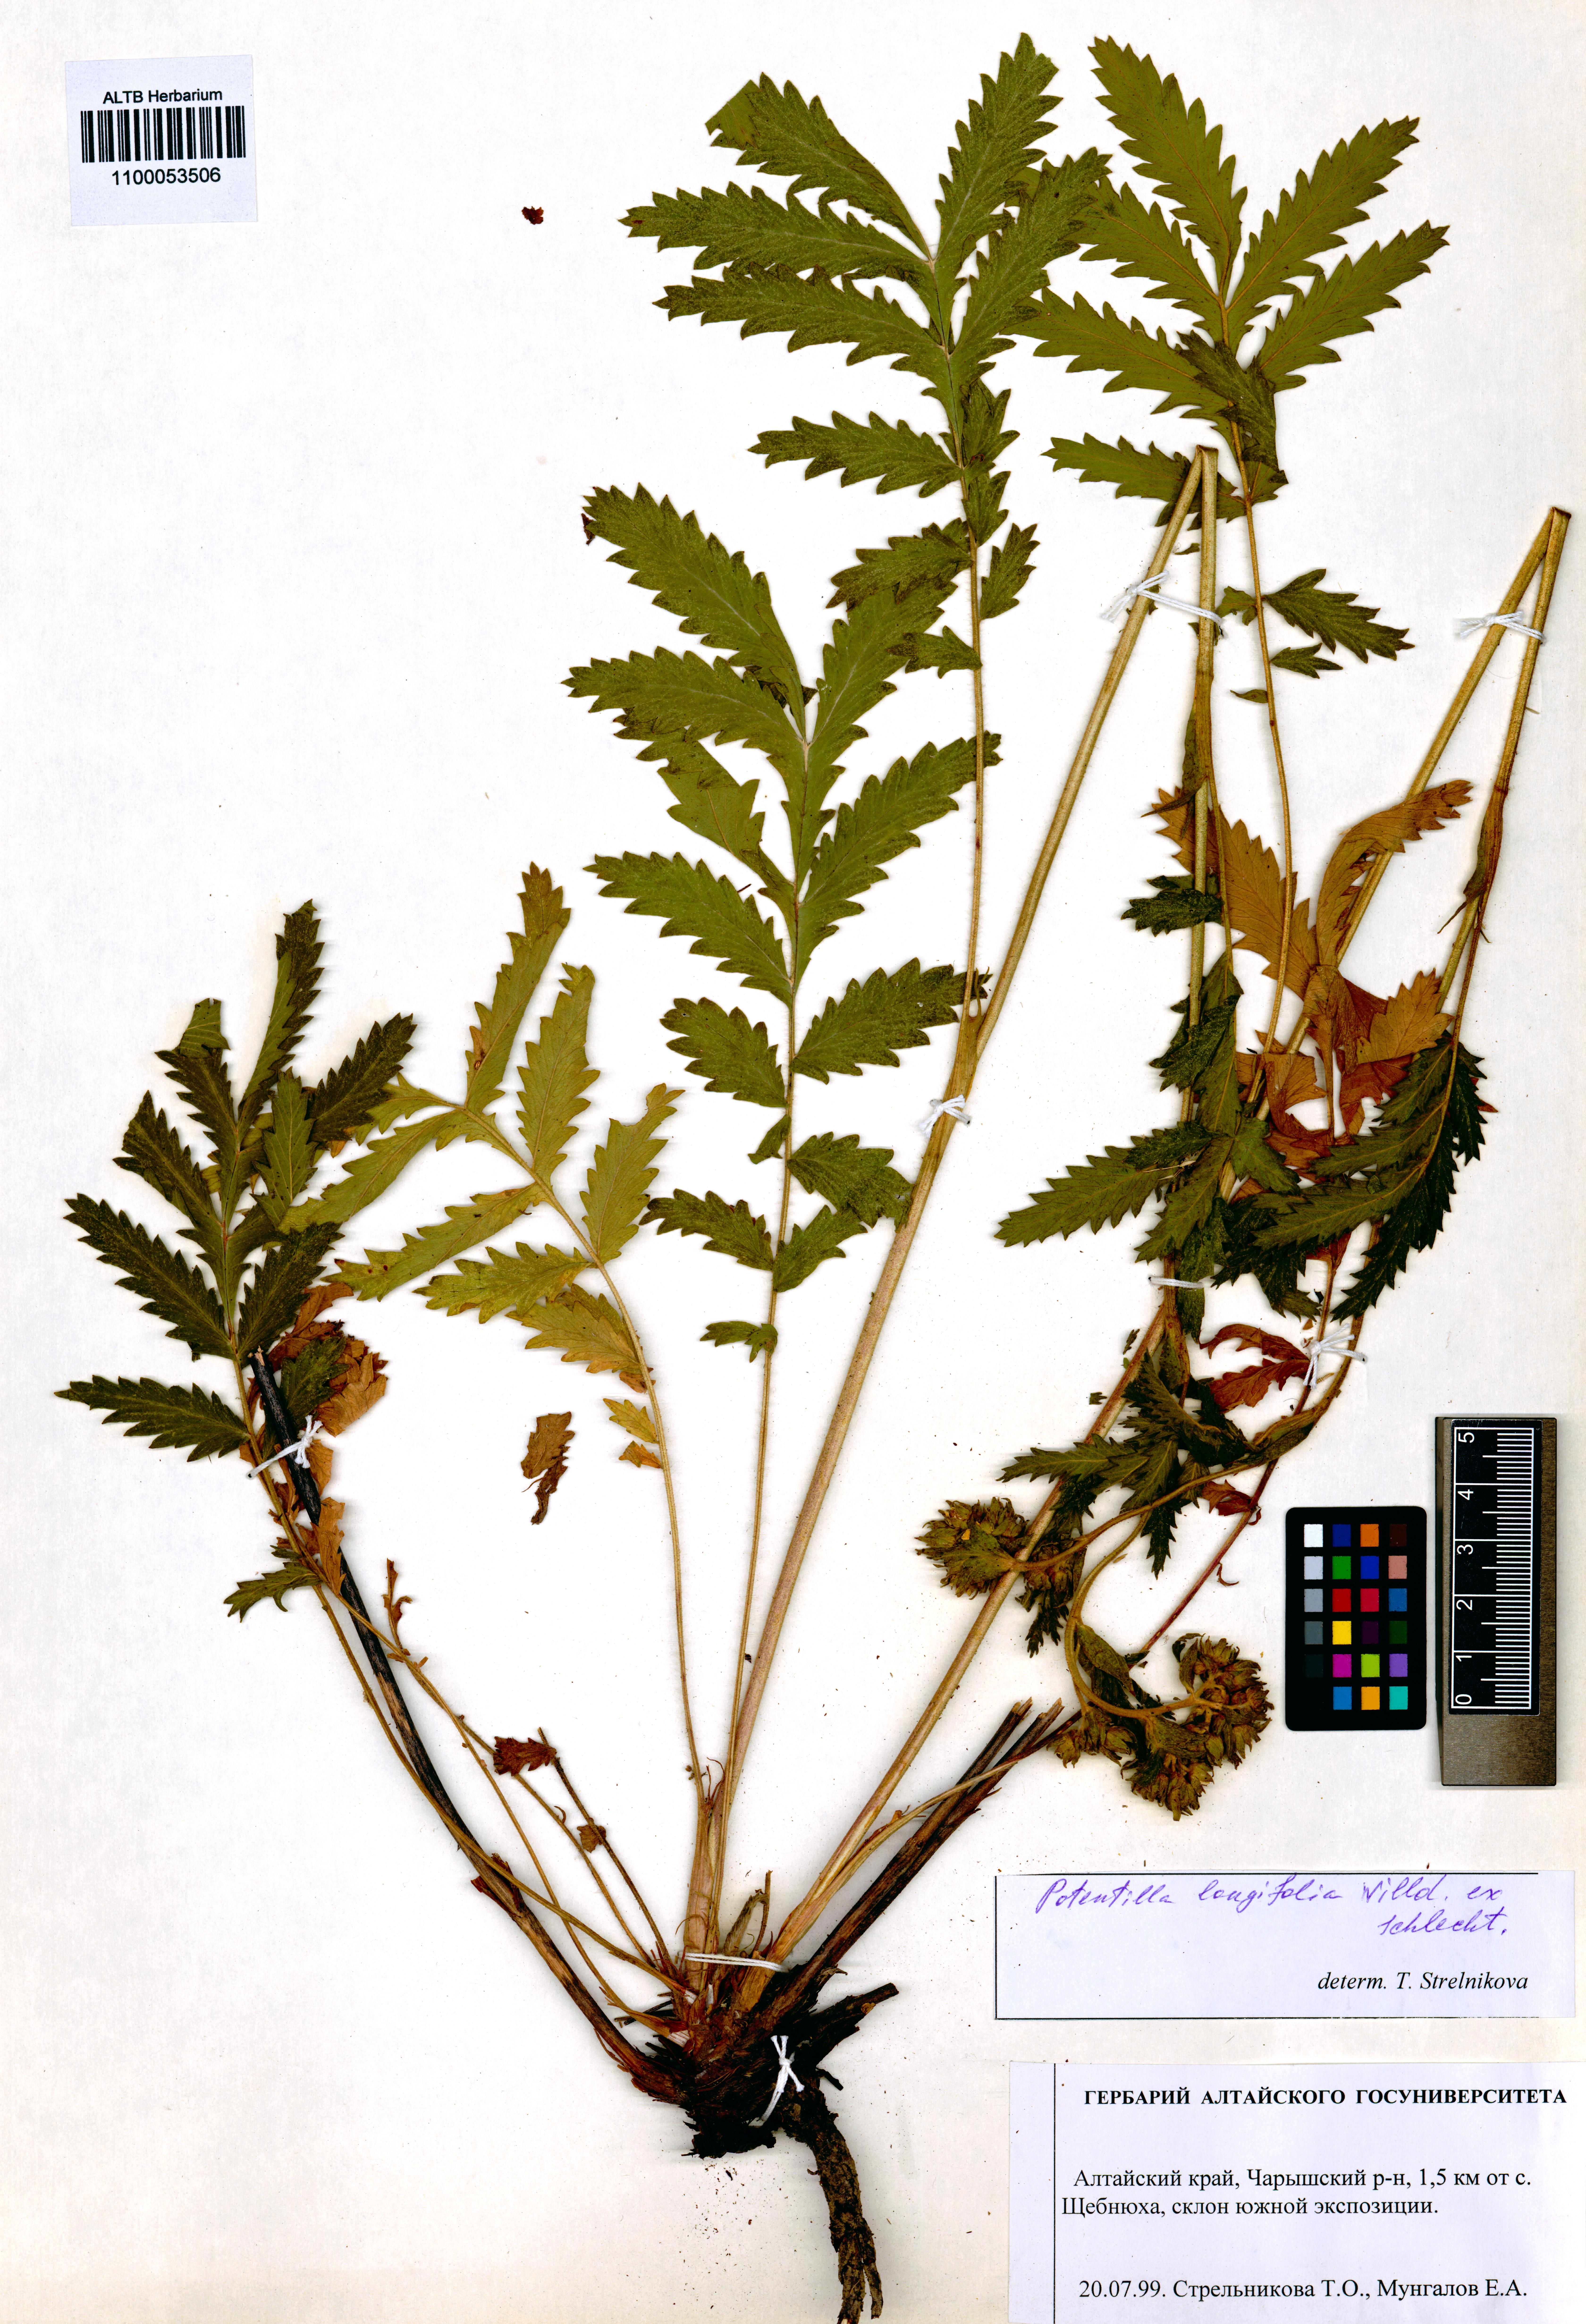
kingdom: Plantae
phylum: Tracheophyta
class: Magnoliopsida
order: Rosales
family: Rosaceae
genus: Potentilla
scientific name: Potentilla longifolia
